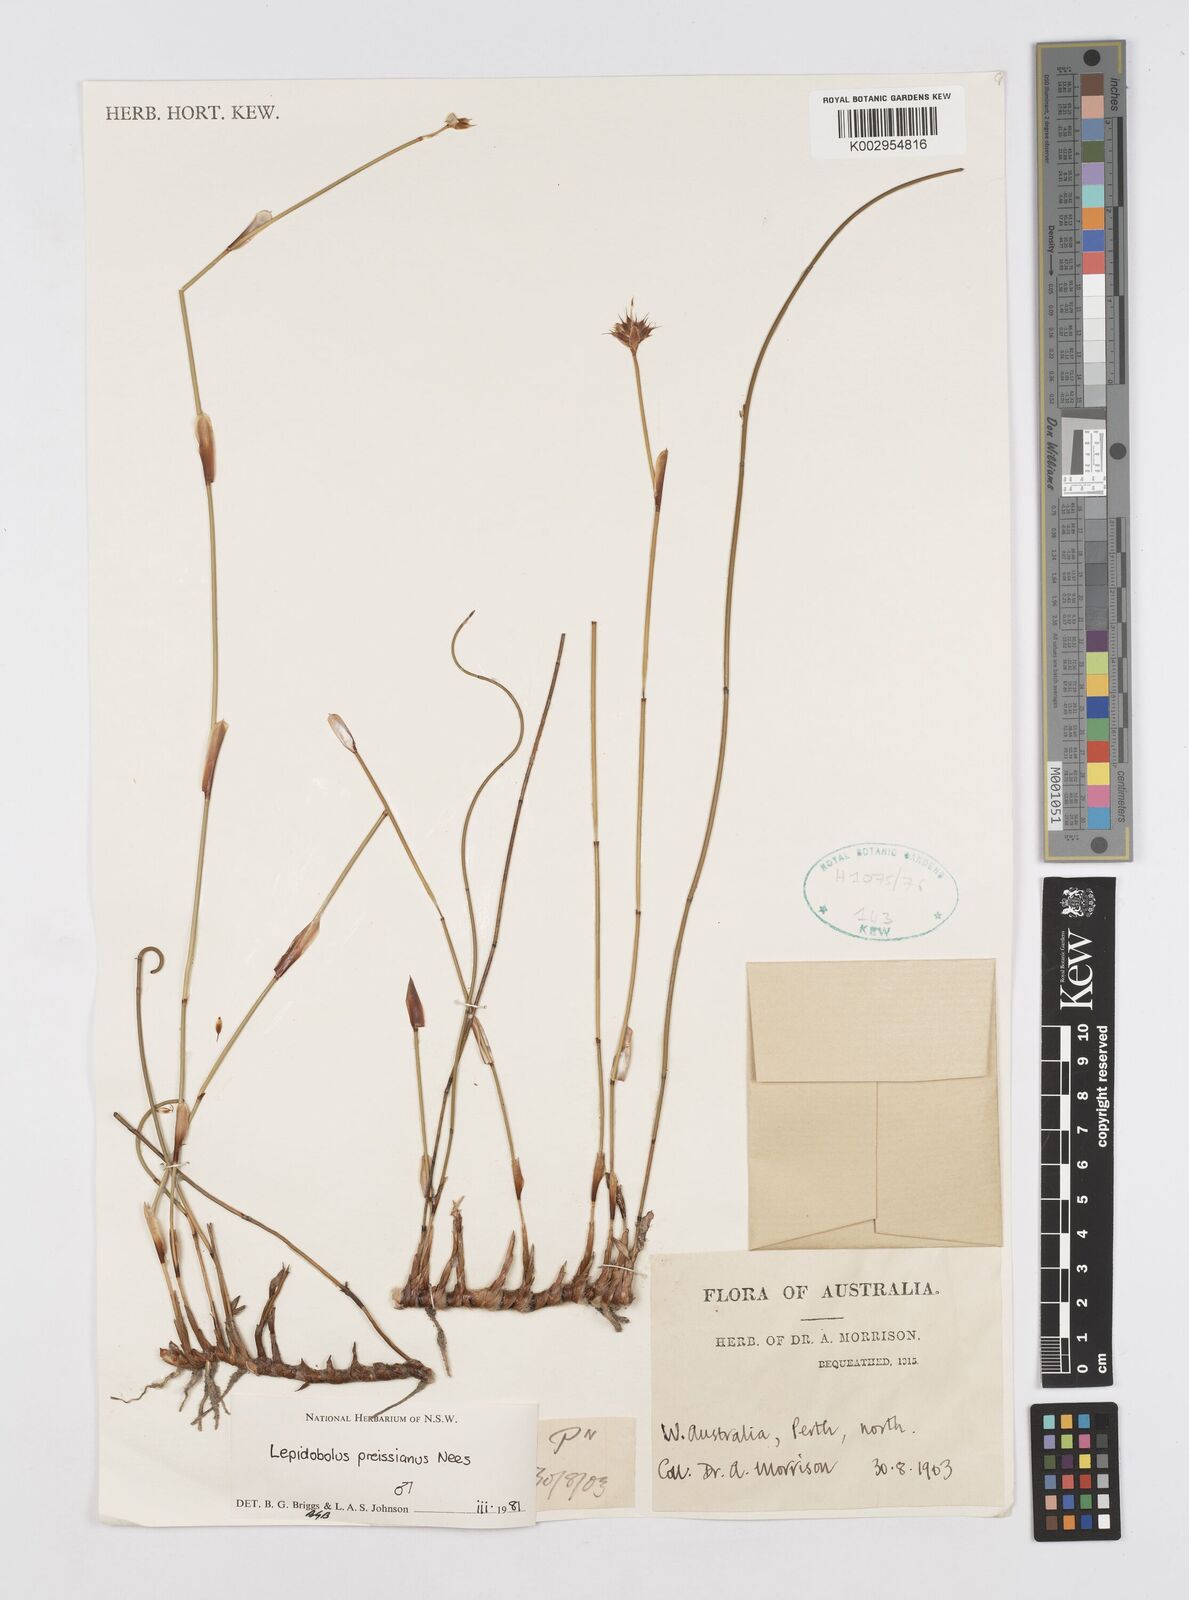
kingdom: Plantae
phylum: Tracheophyta
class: Liliopsida
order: Poales
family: Restionaceae
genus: Lepidobolus
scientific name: Lepidobolus preissianus
